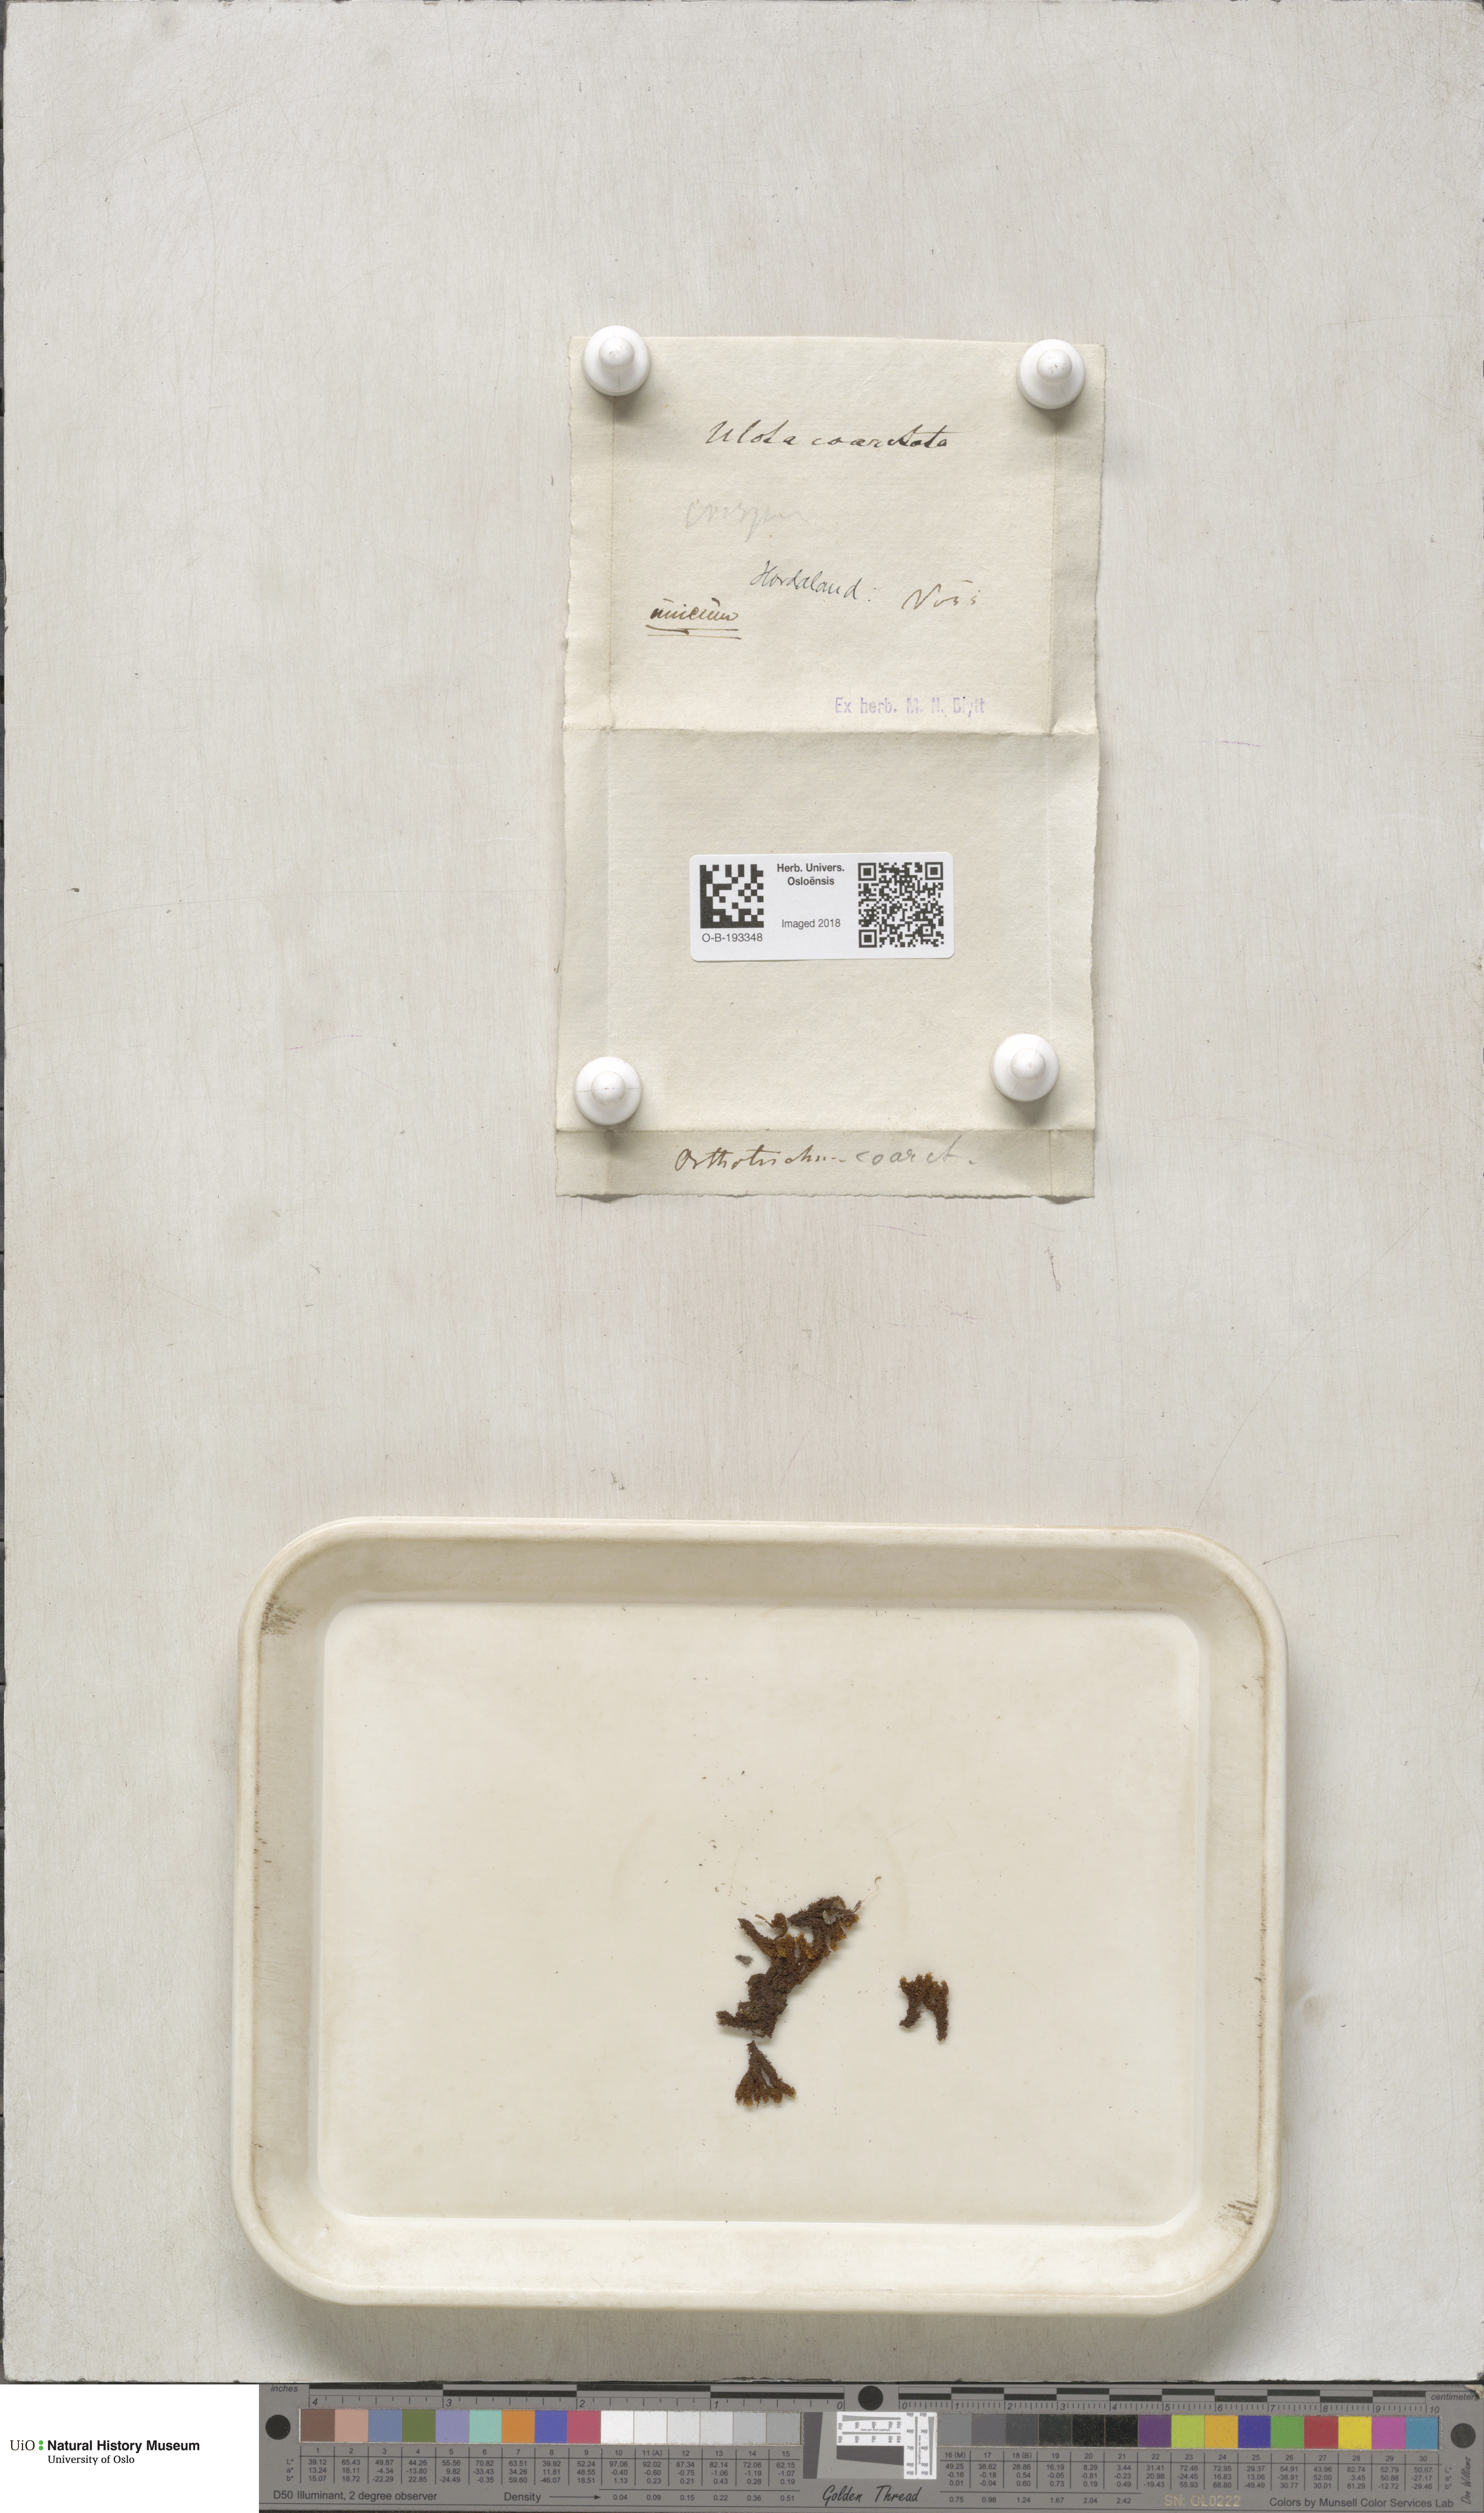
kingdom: Plantae
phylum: Bryophyta
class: Bryopsida
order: Orthotrichales
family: Orthotrichaceae
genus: Ulota
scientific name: Ulota bruchii
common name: Bruch's pincushion
